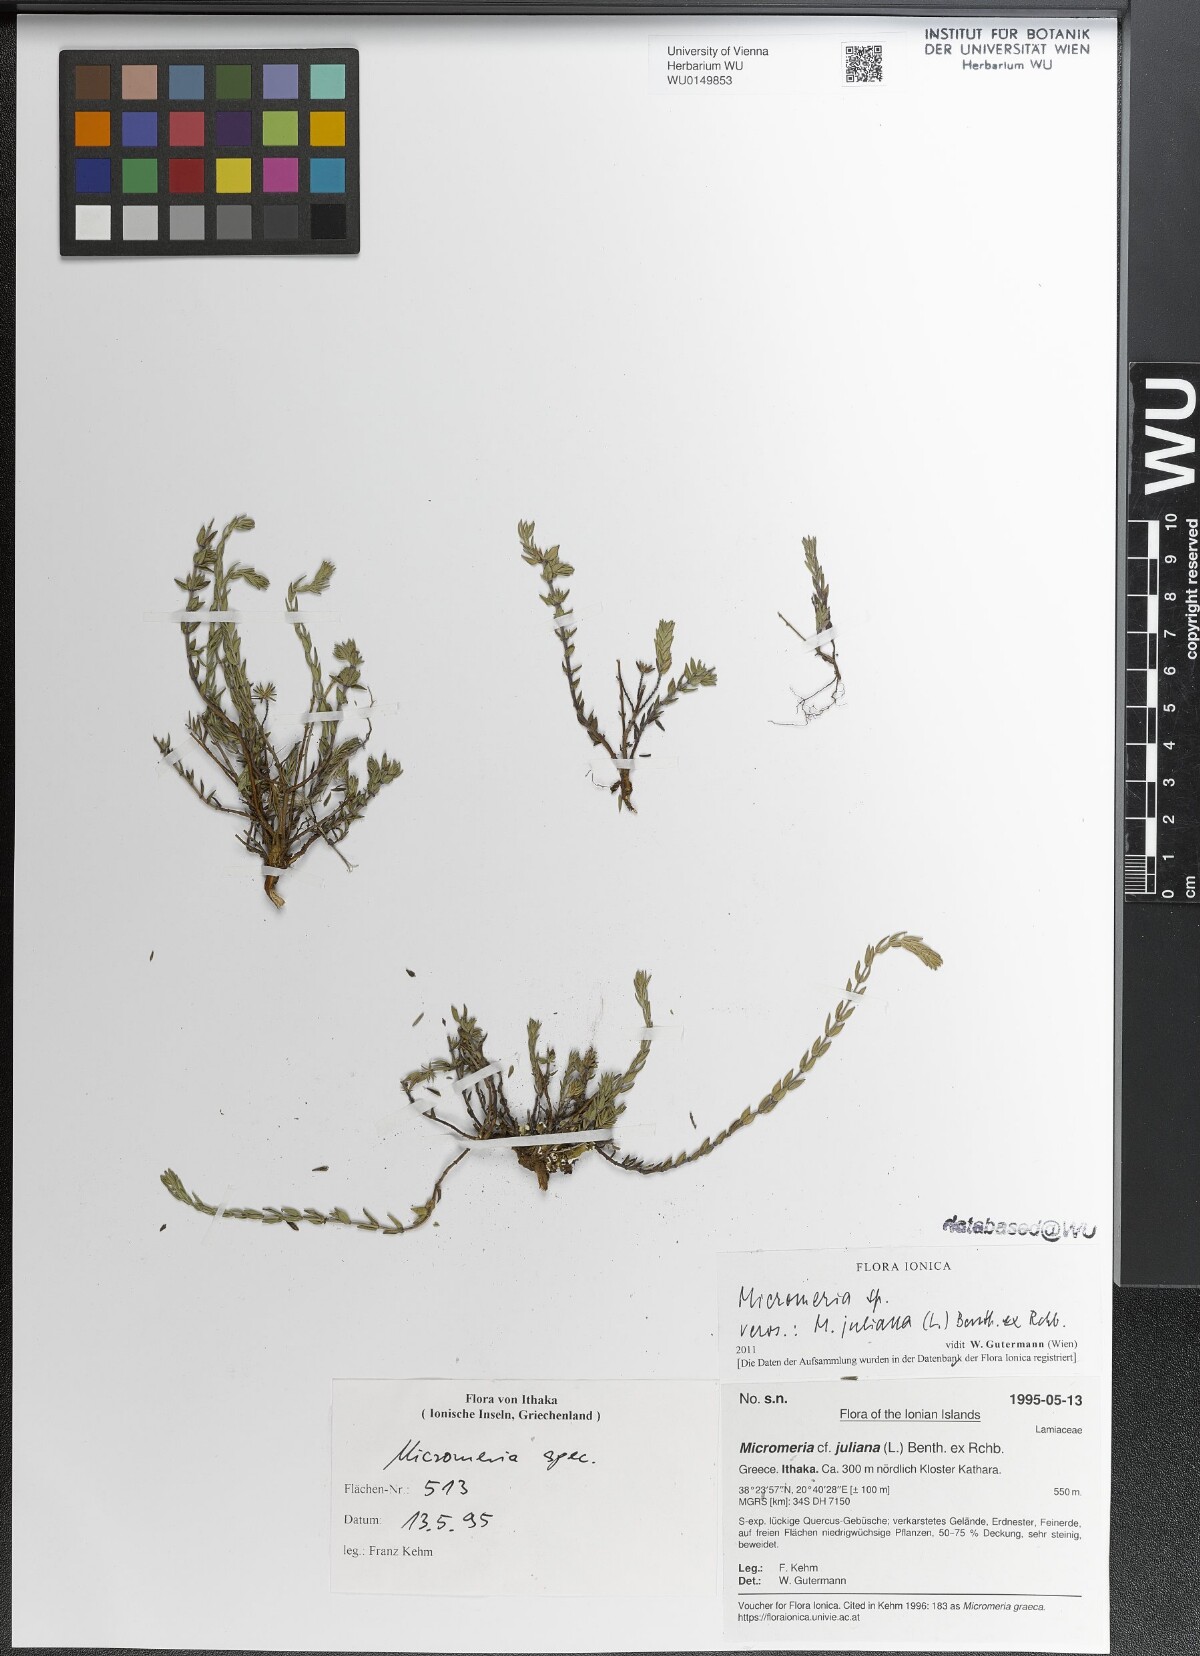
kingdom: Plantae
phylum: Tracheophyta
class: Magnoliopsida
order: Lamiales
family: Lamiaceae
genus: Micromeria
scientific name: Micromeria juliana
